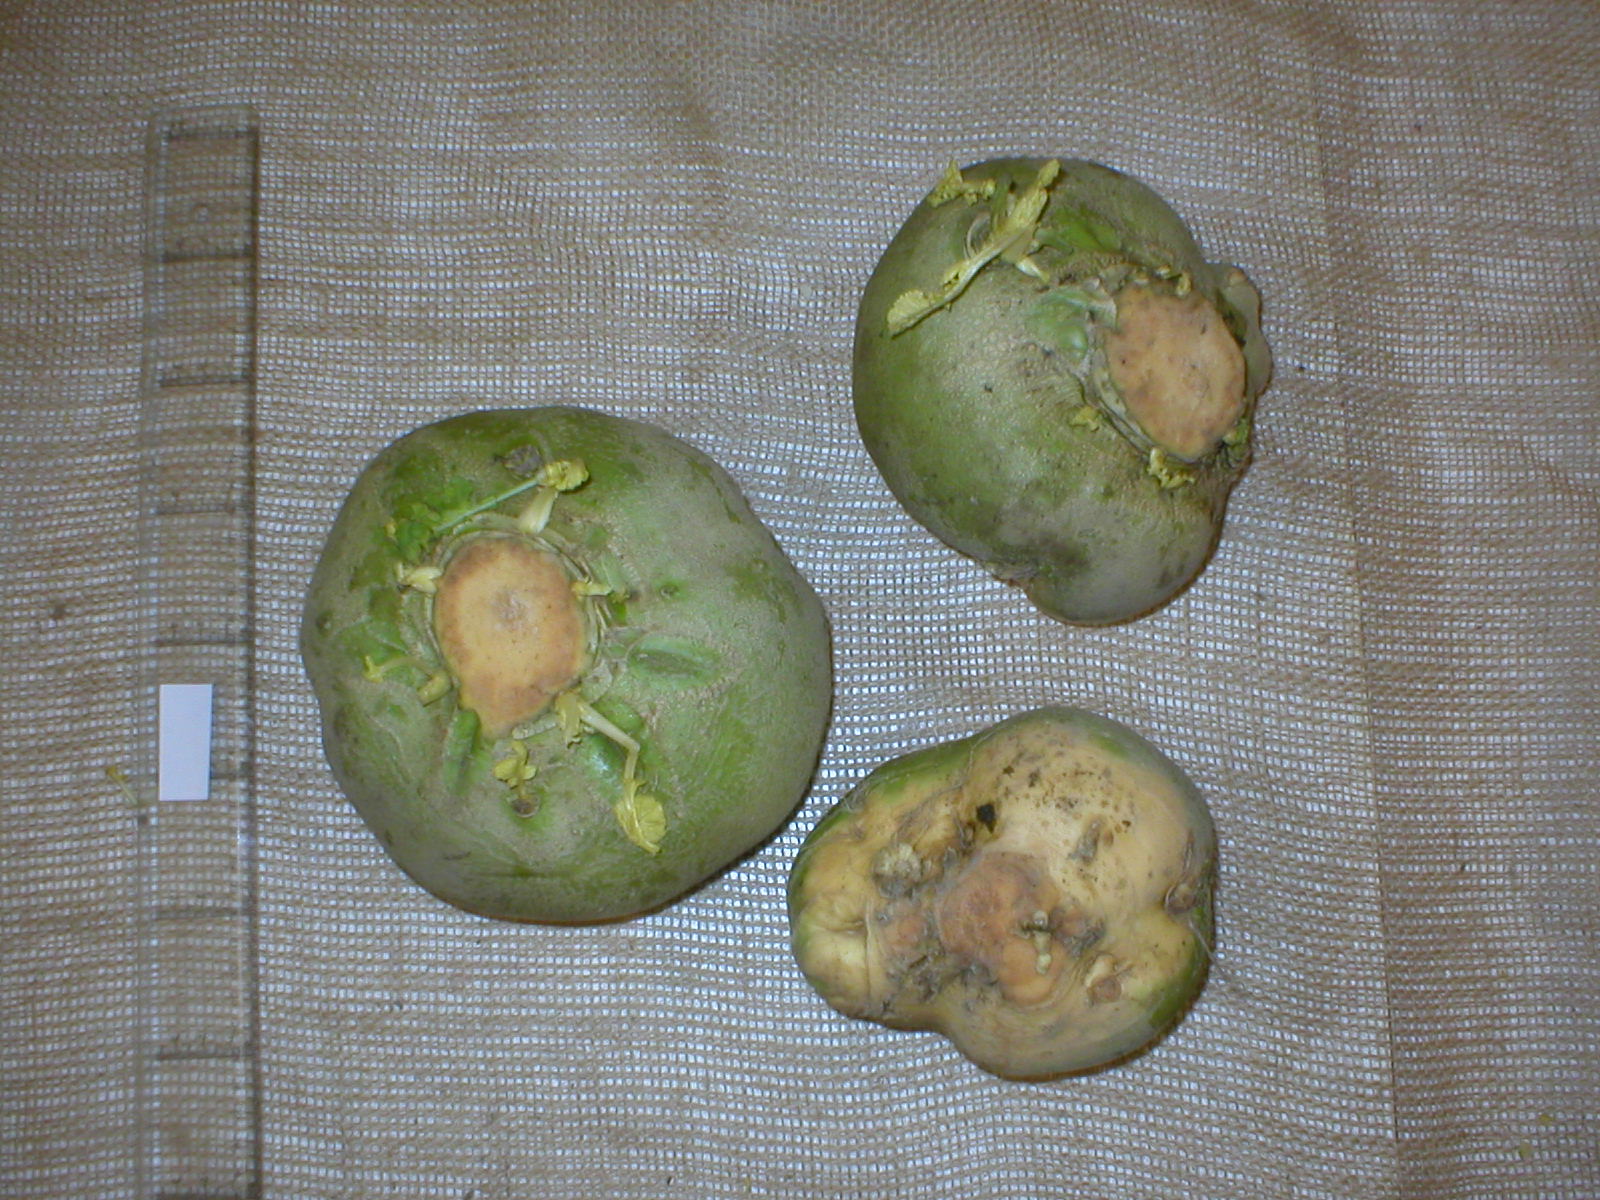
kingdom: Plantae
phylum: Tracheophyta
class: Magnoliopsida
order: Brassicales
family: Brassicaceae
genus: Brassica
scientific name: Brassica napus
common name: Rape
